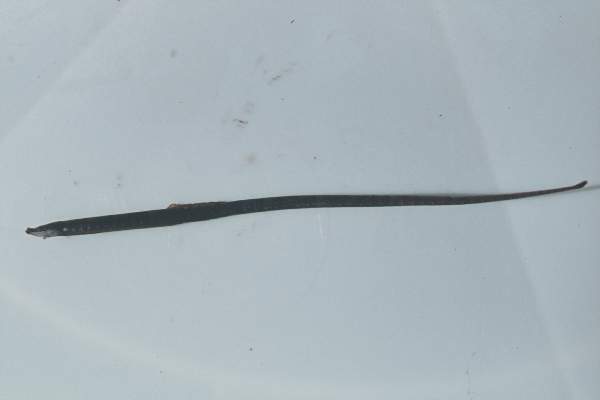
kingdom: Animalia
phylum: Chordata
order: Syngnathiformes
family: Syngnathidae
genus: Nannocampus
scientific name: Nannocampus elegans
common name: Elegant pipefish
